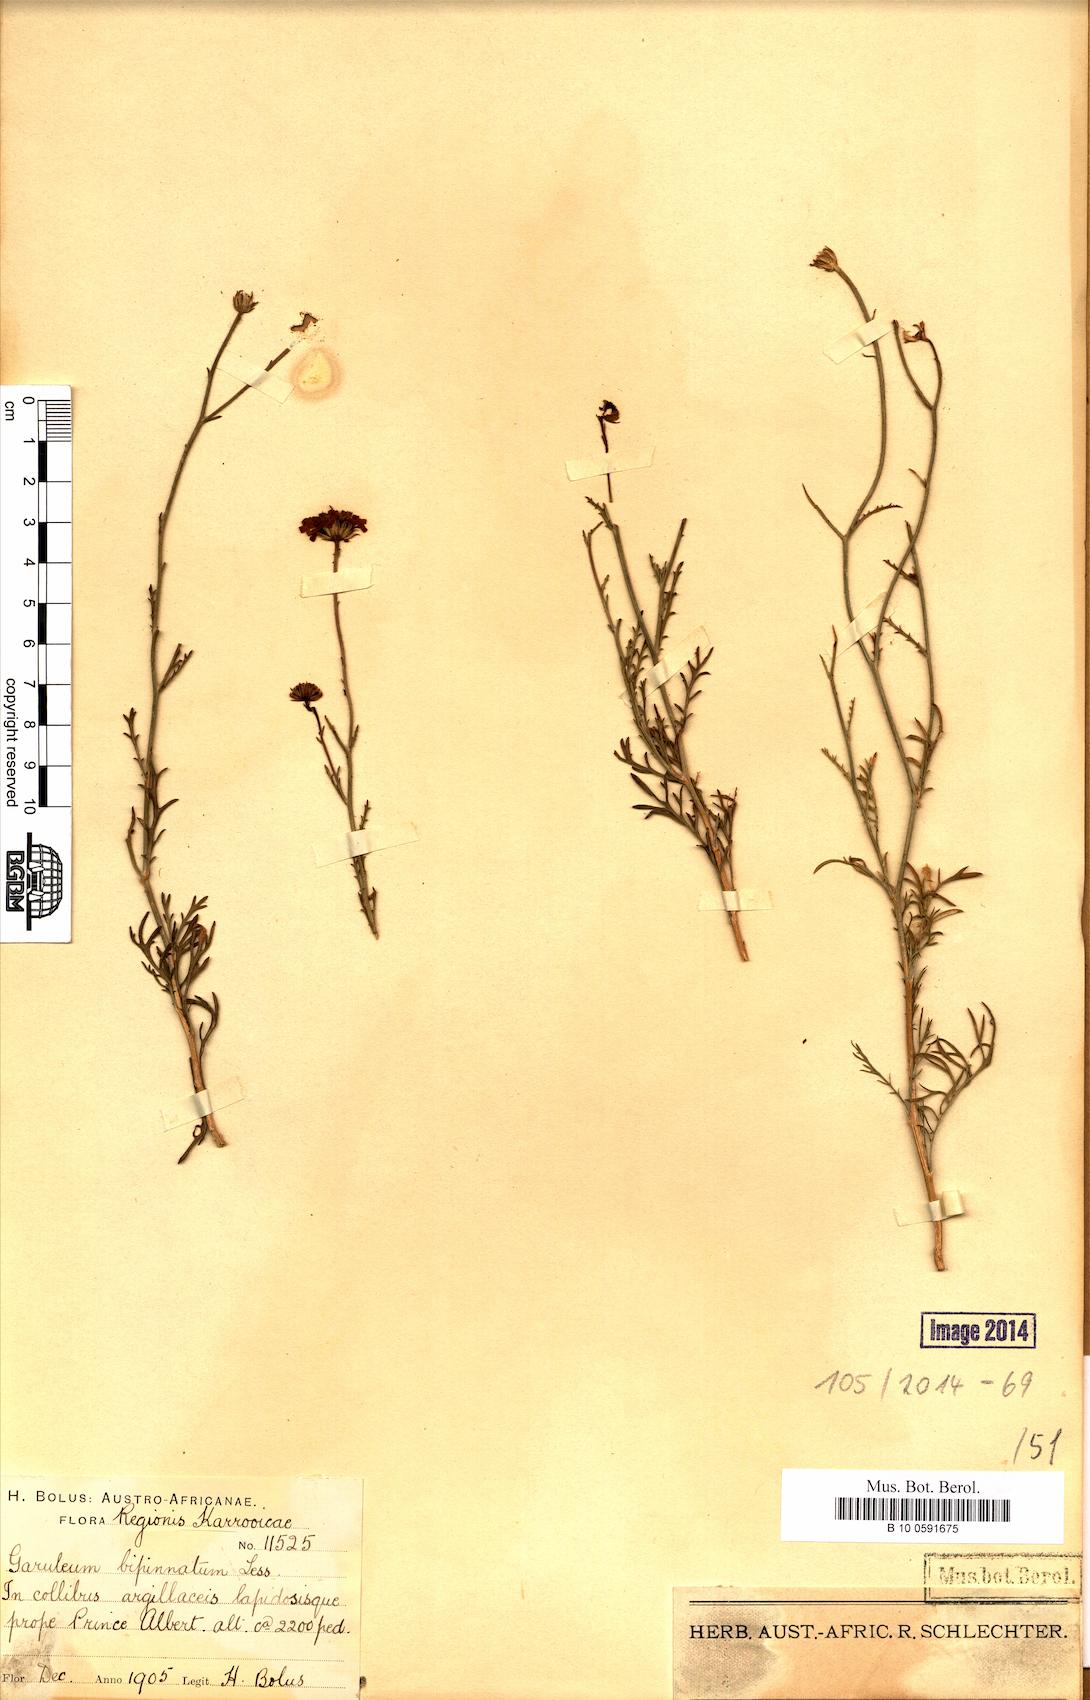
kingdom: Plantae
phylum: Tracheophyta
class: Magnoliopsida
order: Asterales
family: Asteraceae
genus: Garuleum
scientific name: Garuleum bipinnatum
